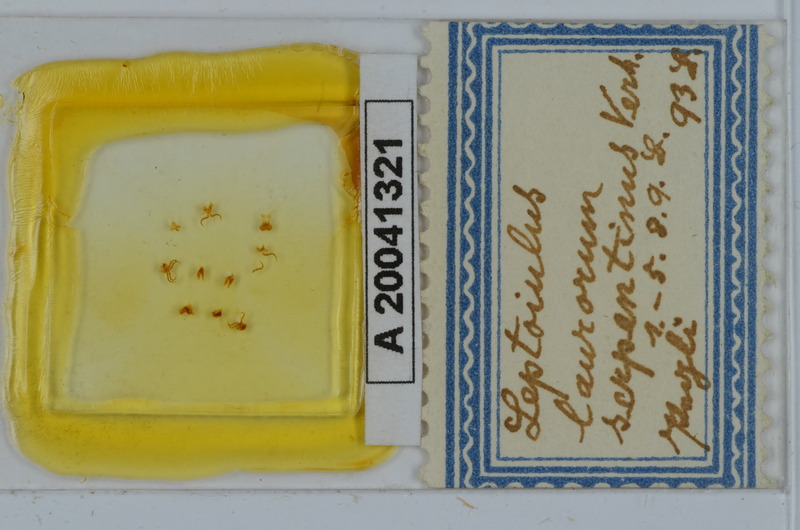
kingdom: Animalia
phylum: Arthropoda
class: Diplopoda
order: Julida
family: Julidae
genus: Leptoiulus
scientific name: Leptoiulus laurorum
